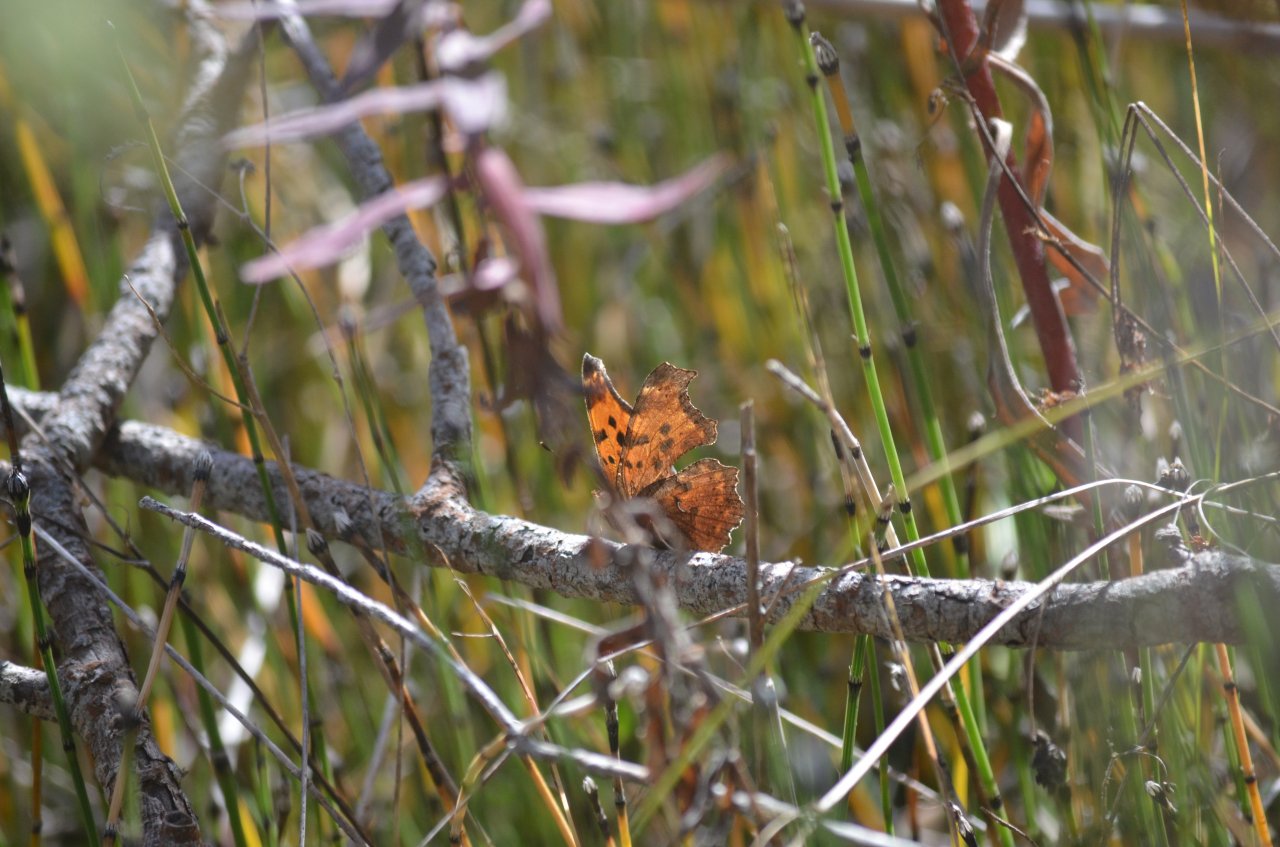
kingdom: Animalia
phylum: Arthropoda
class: Insecta
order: Lepidoptera
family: Nymphalidae
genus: Polygonia
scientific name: Polygonia comma
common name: Eastern Comma
